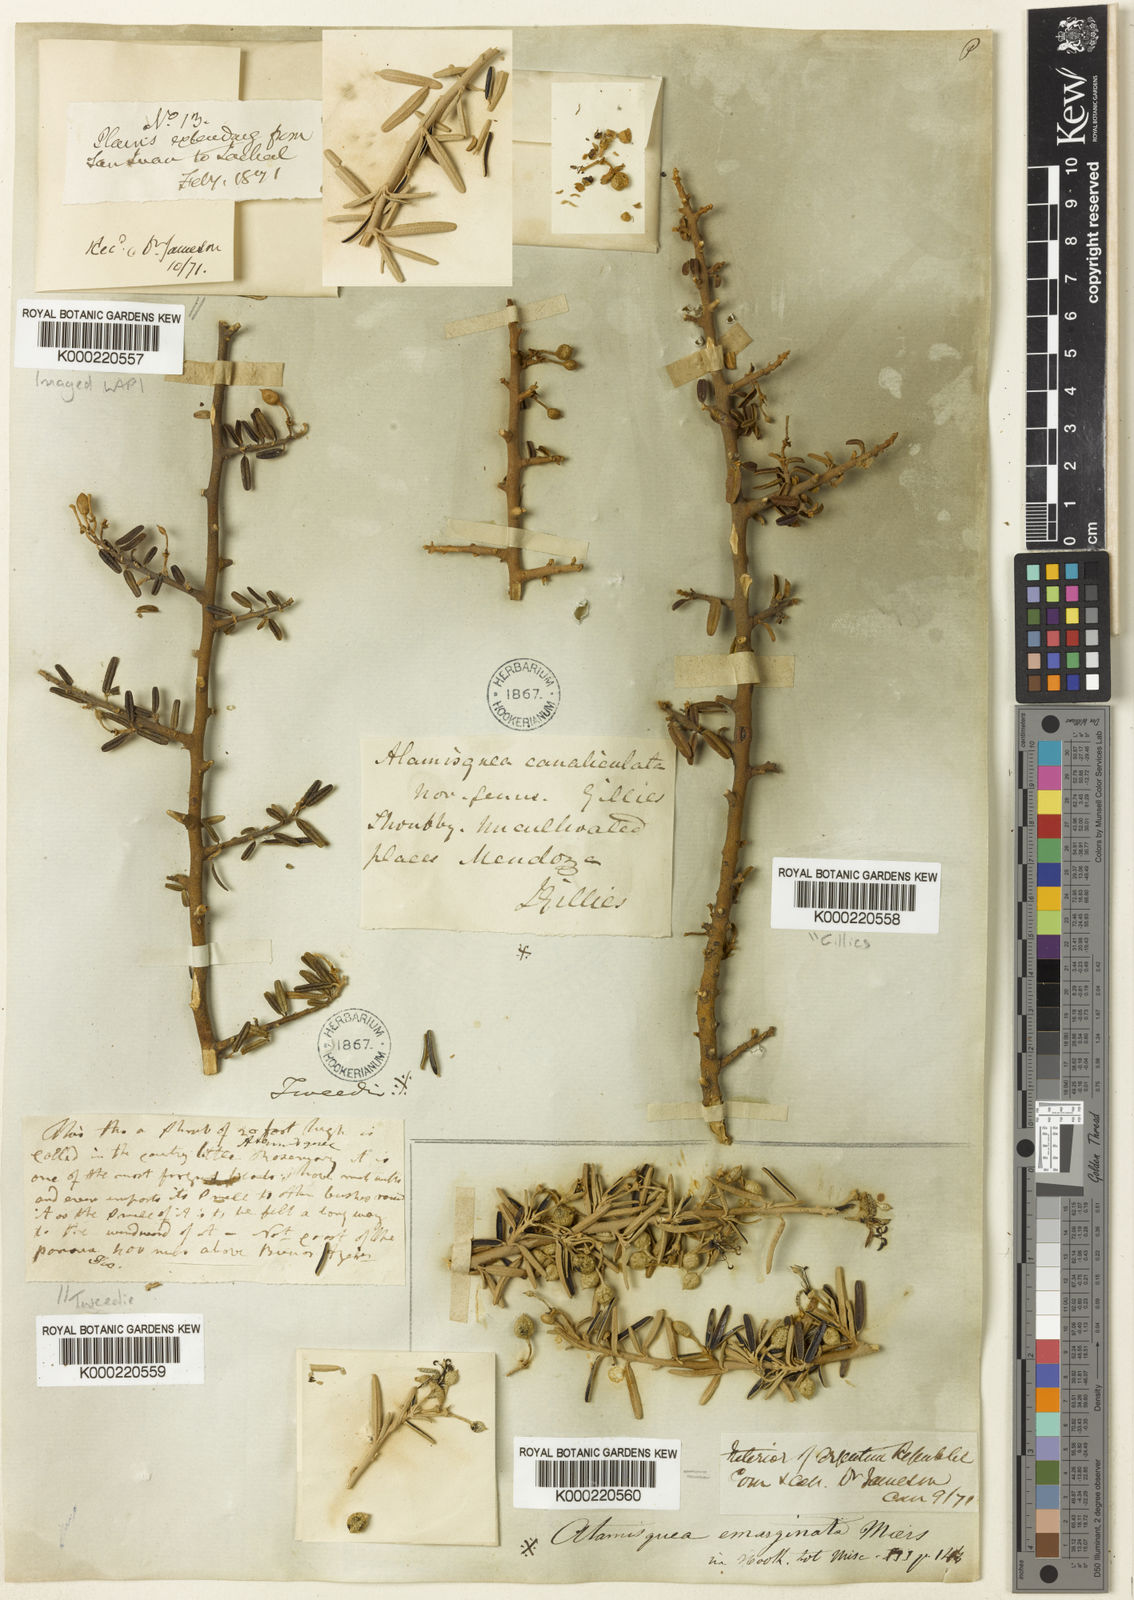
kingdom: Plantae
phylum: Tracheophyta
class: Magnoliopsida
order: Brassicales
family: Capparaceae
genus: Atamisquea
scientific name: Atamisquea emarginata
